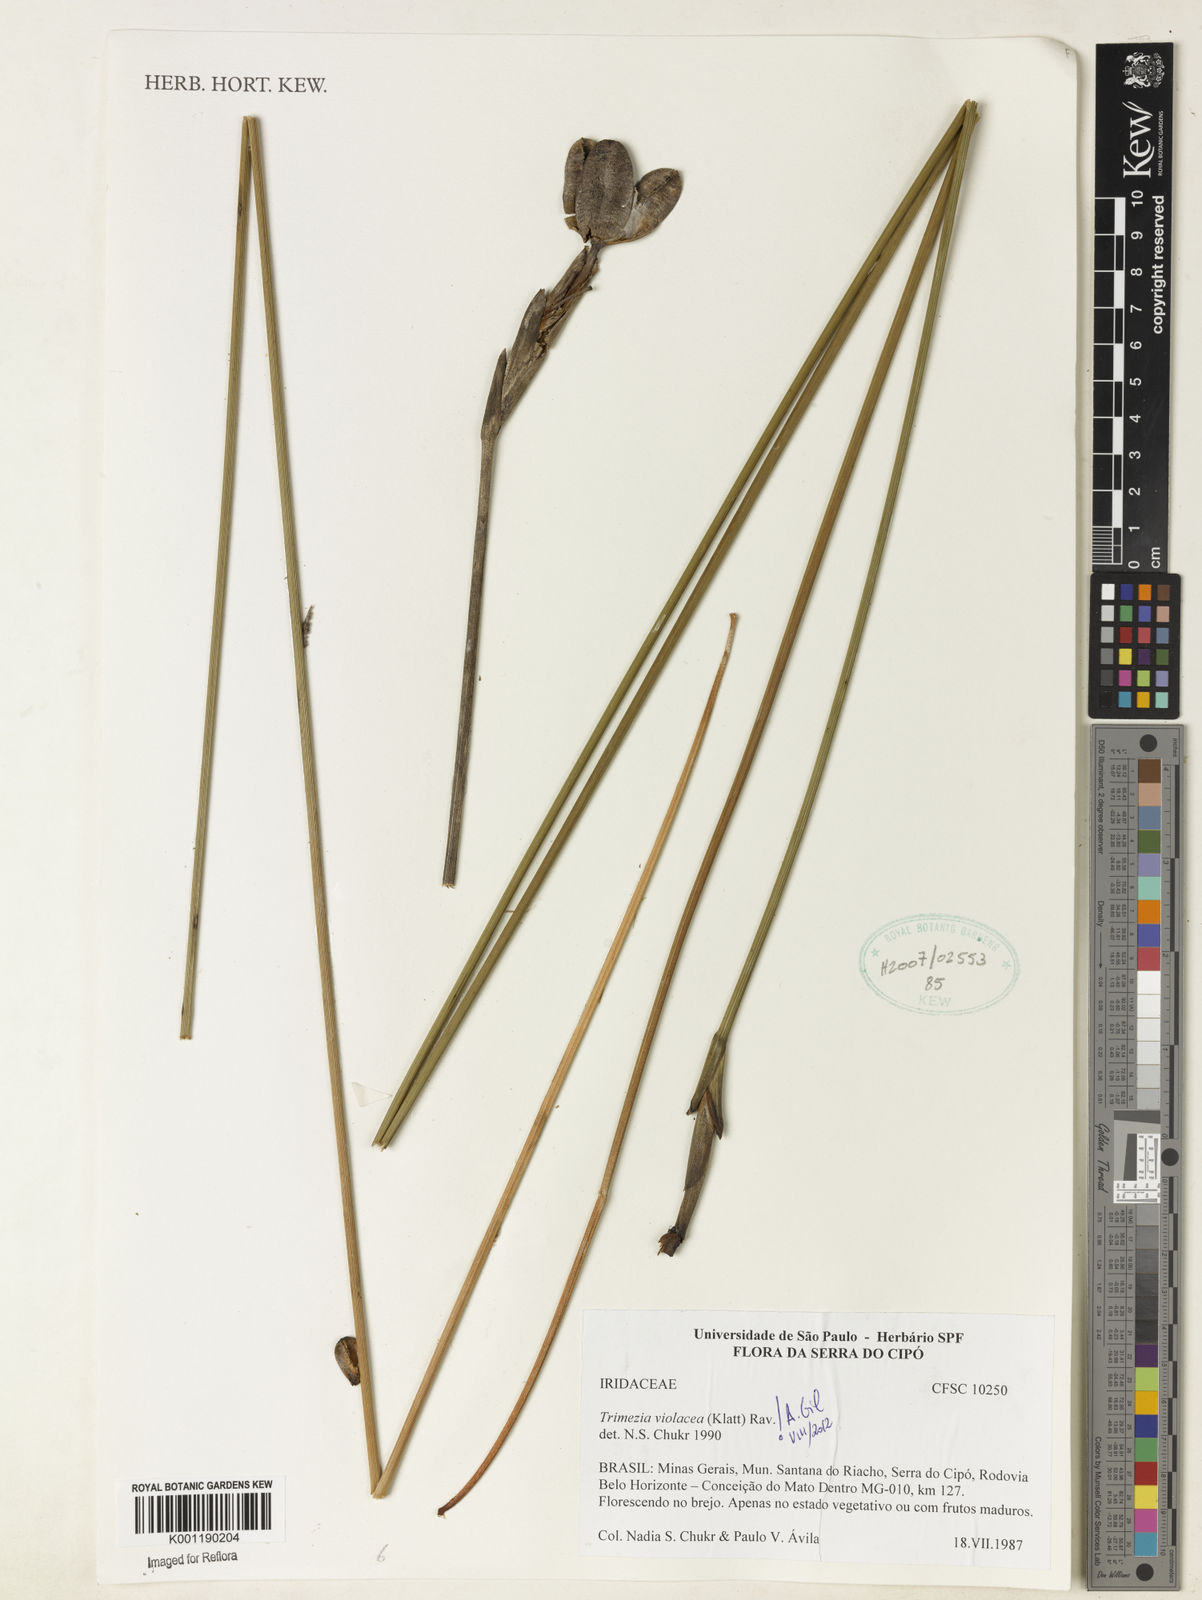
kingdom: Plantae
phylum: Tracheophyta
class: Liliopsida
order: Asparagales
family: Iridaceae
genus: Trimezia
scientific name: Trimezia violacea
